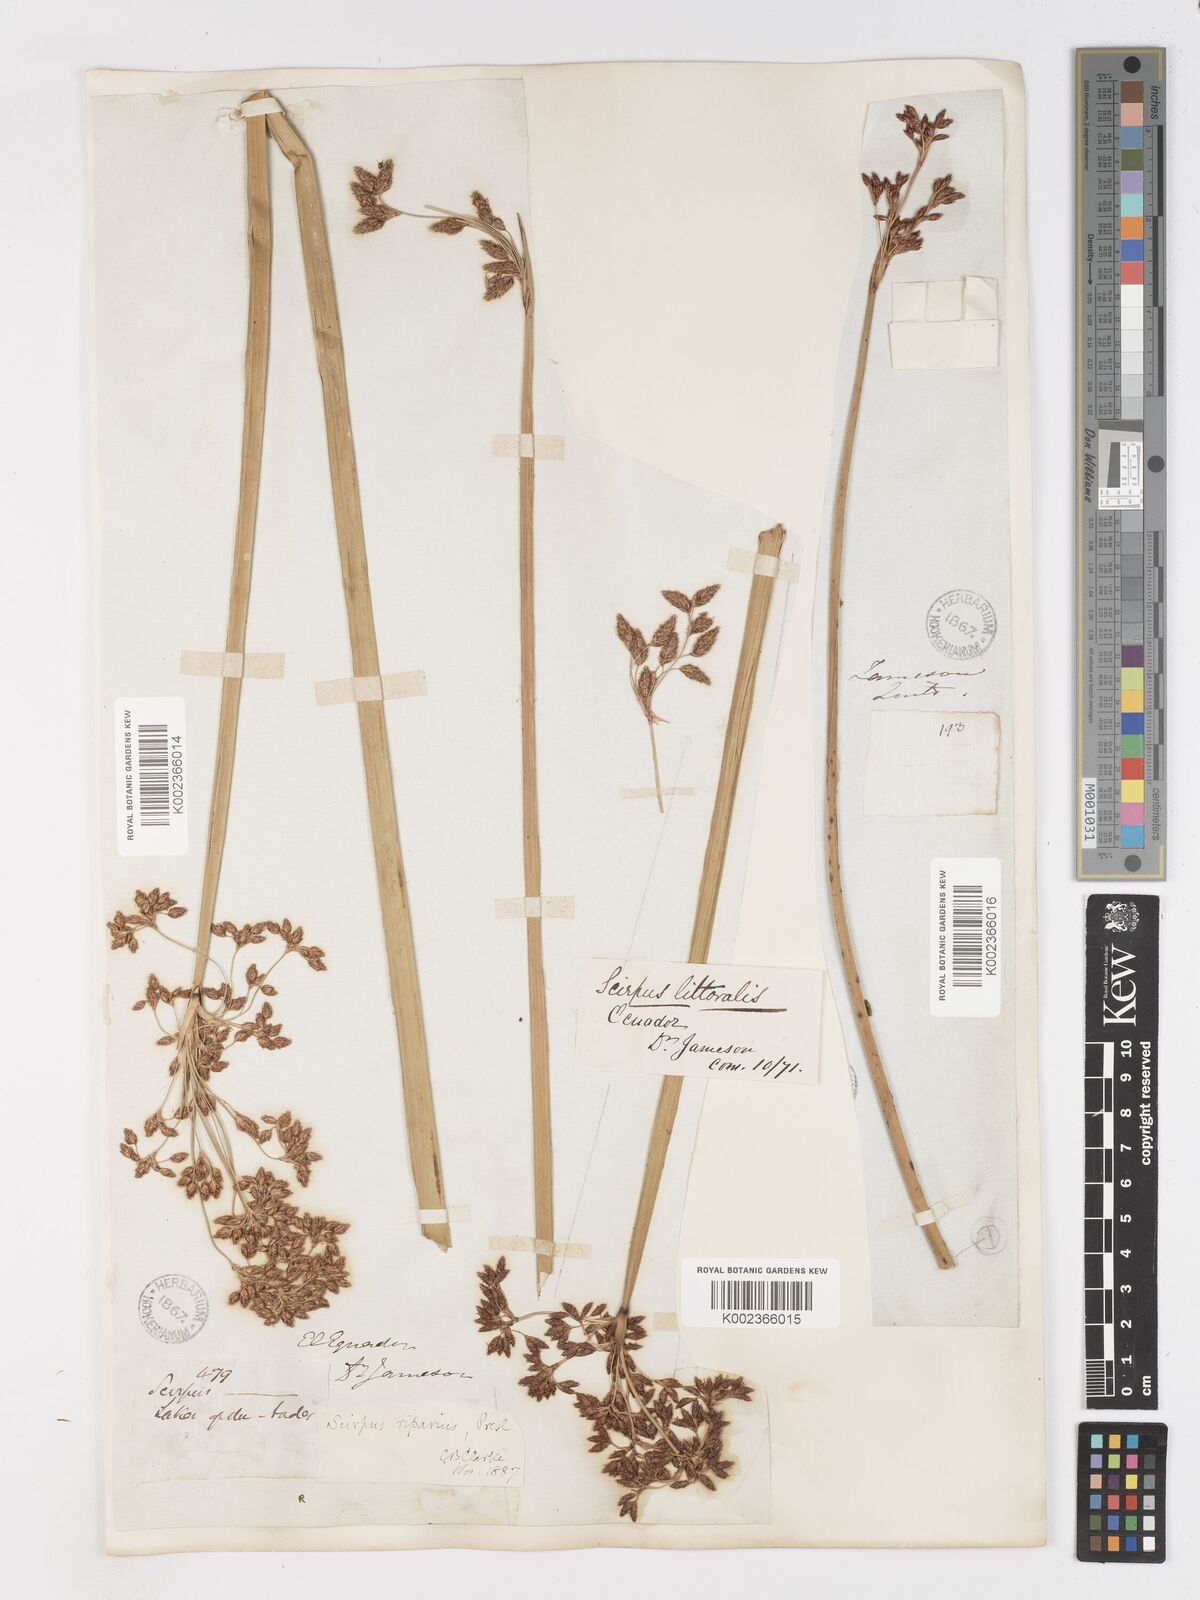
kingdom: Plantae
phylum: Tracheophyta
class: Liliopsida
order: Poales
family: Cyperaceae
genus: Schoenoplectus
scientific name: Schoenoplectus californicus
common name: California bulrush
